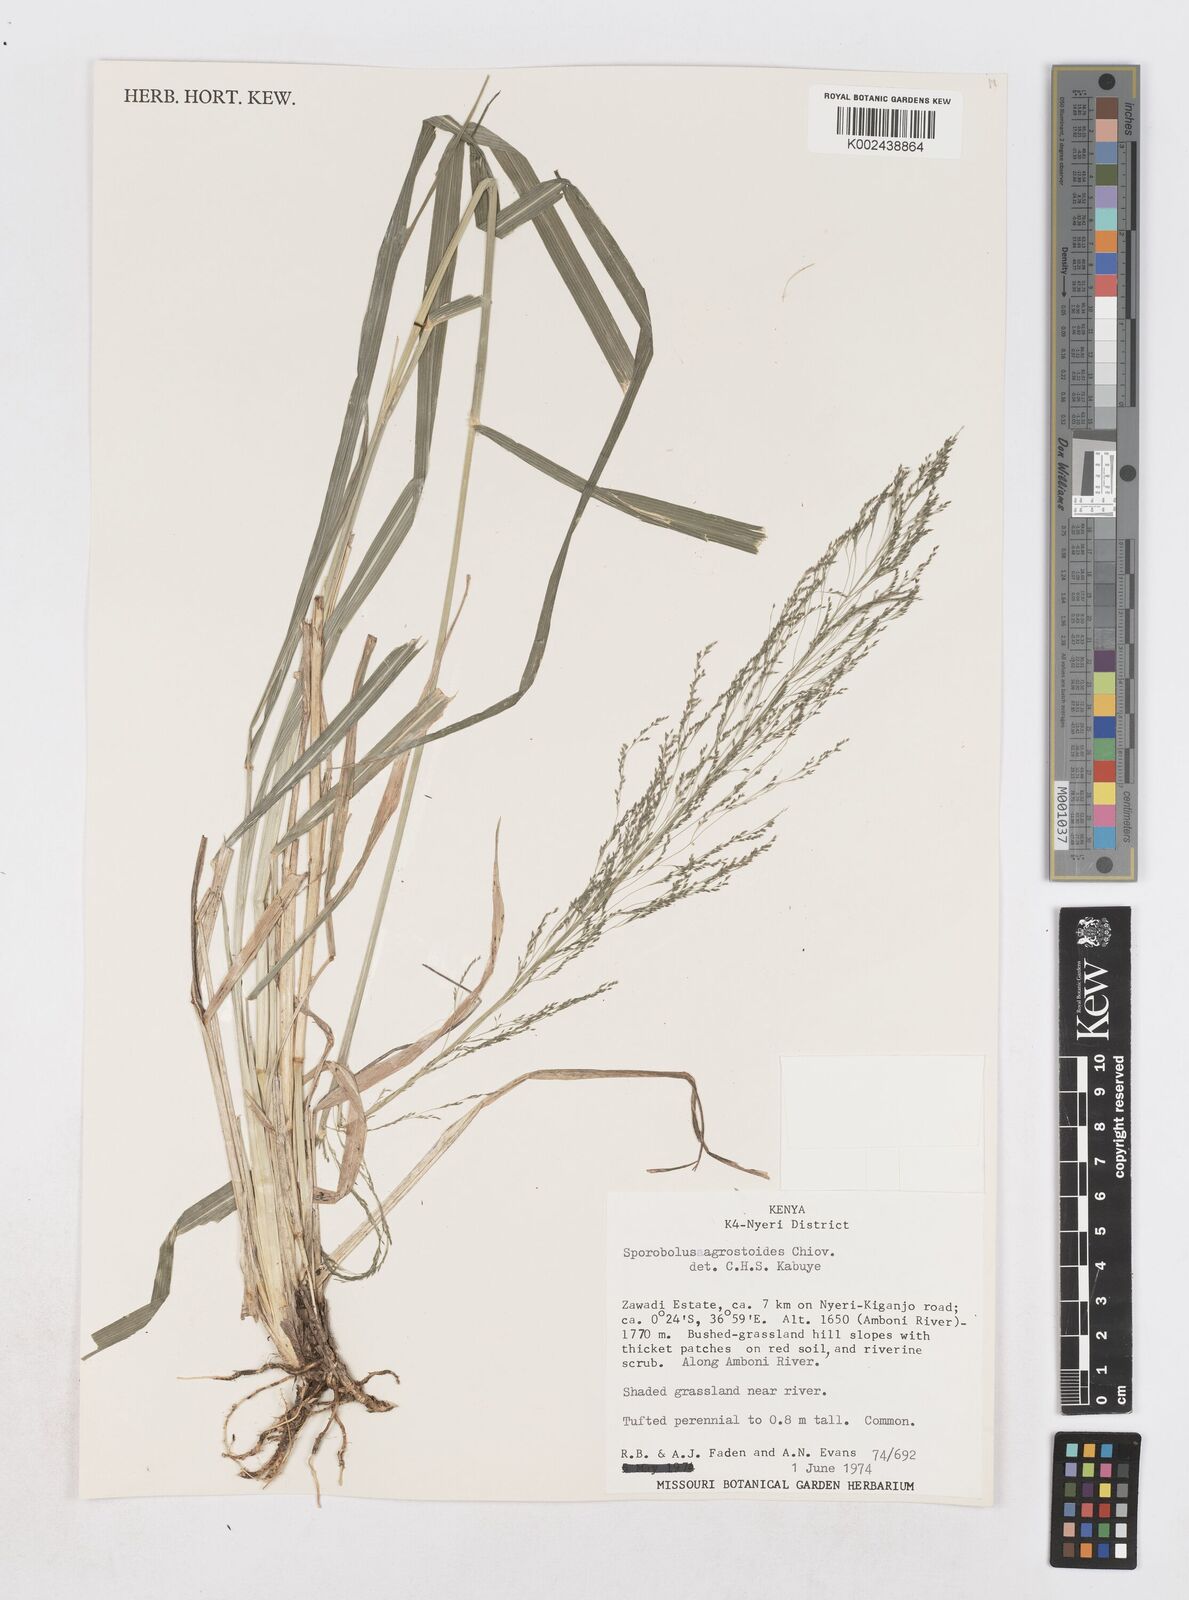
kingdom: Plantae
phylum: Tracheophyta
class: Liliopsida
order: Poales
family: Poaceae
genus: Sporobolus
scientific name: Sporobolus agrostoides
